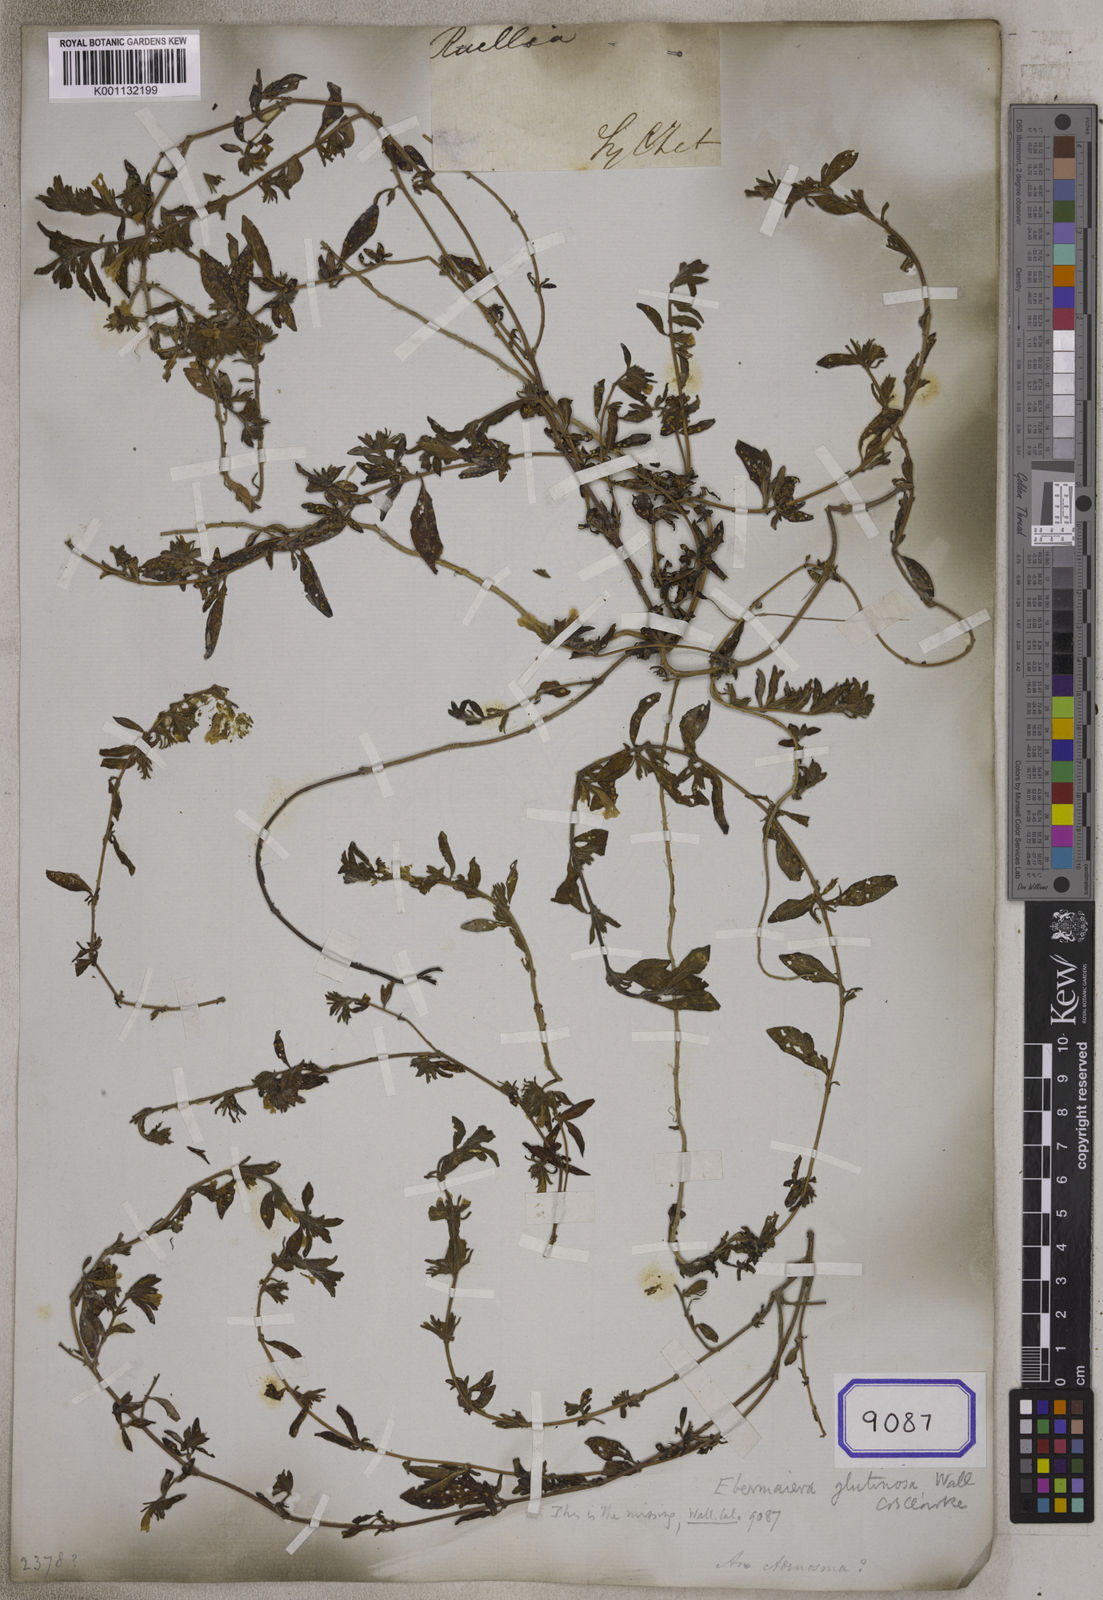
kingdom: Plantae
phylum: Tracheophyta
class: Magnoliopsida
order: Lamiales
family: Acanthaceae
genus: Staurogyne
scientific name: Staurogyne
